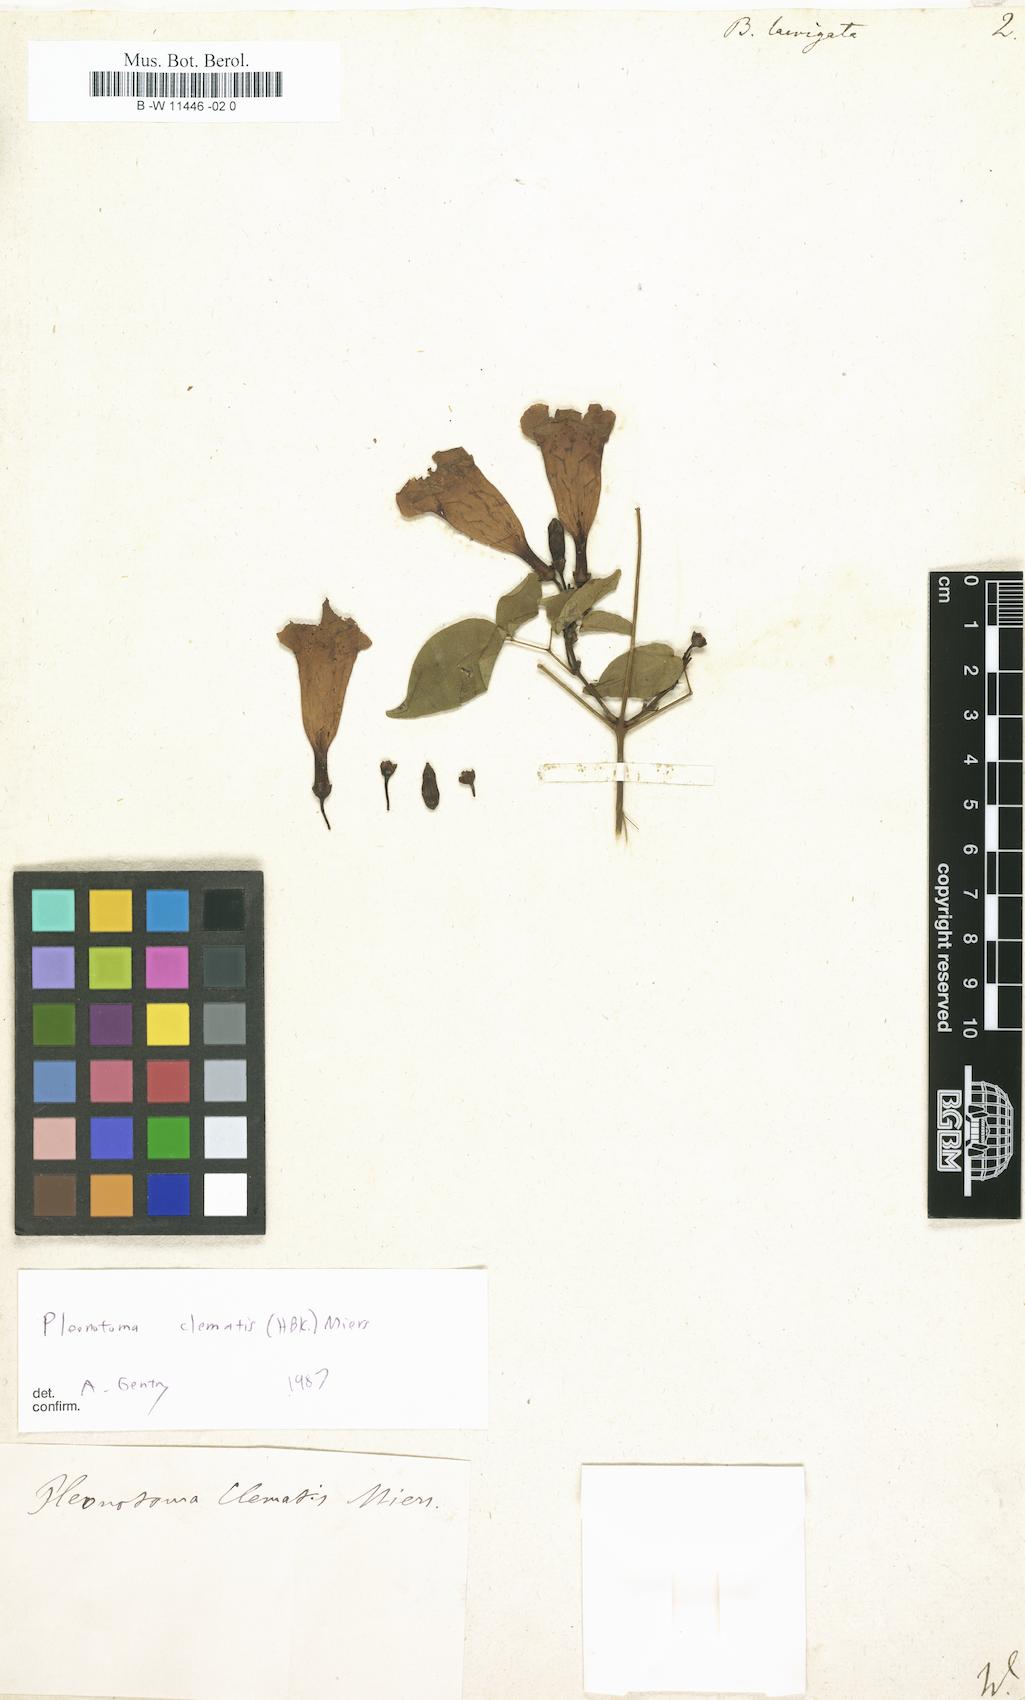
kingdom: Plantae
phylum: Tracheophyta
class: Magnoliopsida
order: Lamiales
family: Bignoniaceae
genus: Mansoa
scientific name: Mansoa hymenaea
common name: Membranous garlic vine
